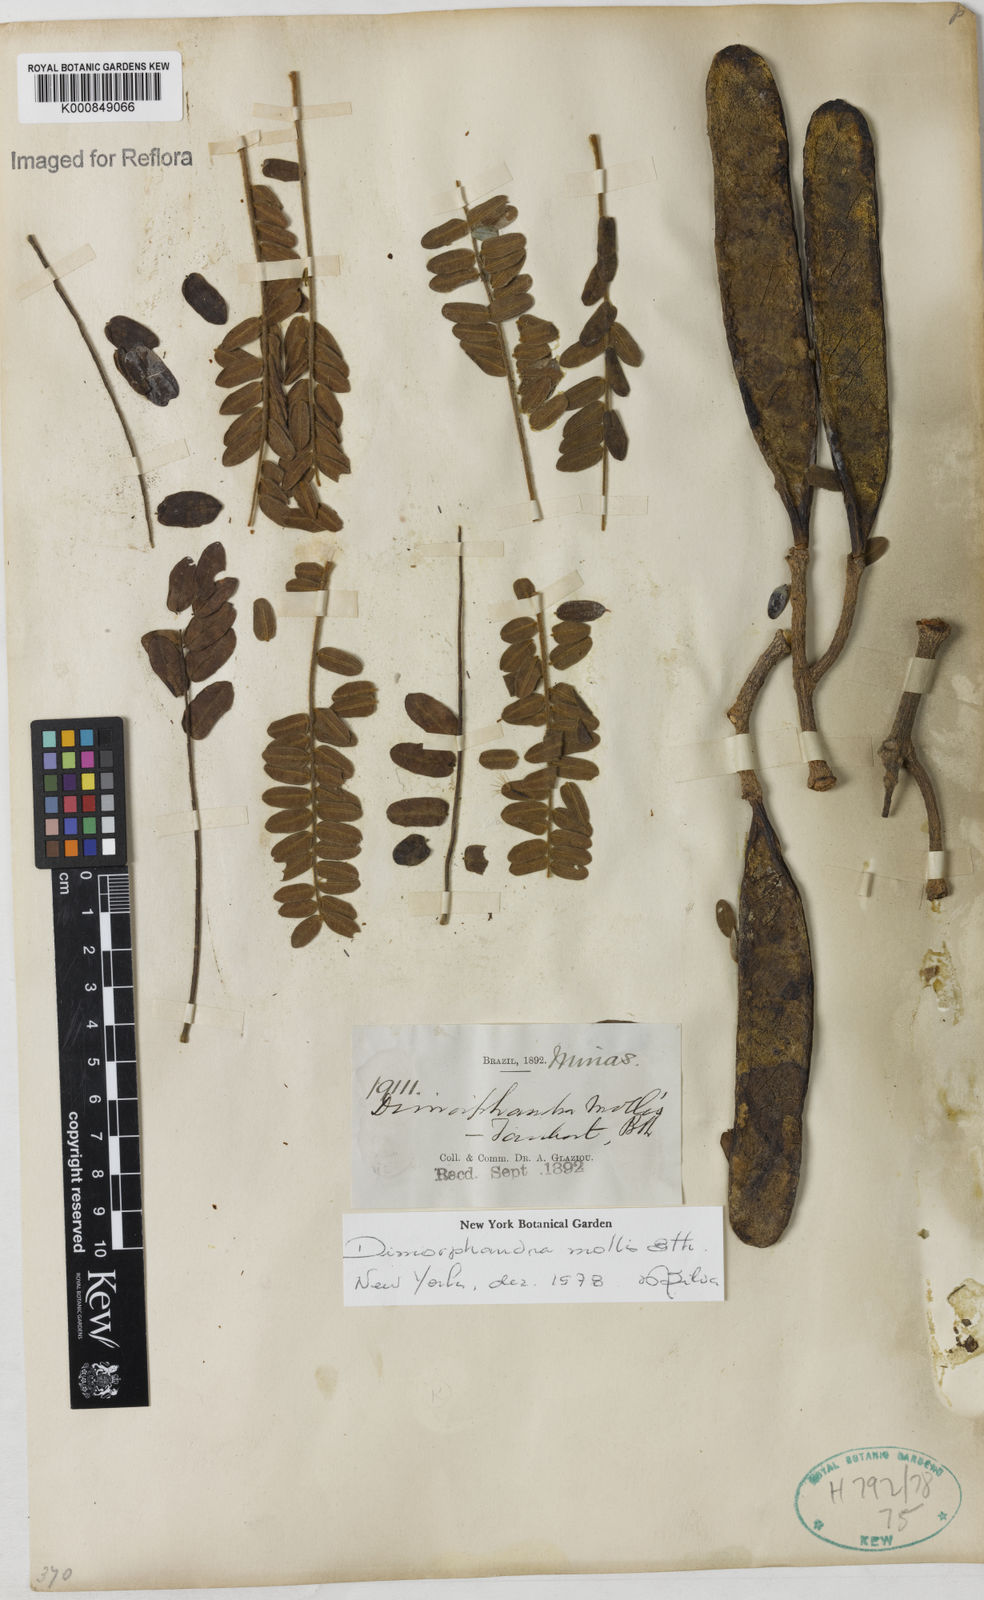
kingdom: Plantae
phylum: Tracheophyta
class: Magnoliopsida
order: Fabales
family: Fabaceae
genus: Dimorphandra
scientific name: Dimorphandra mollis
